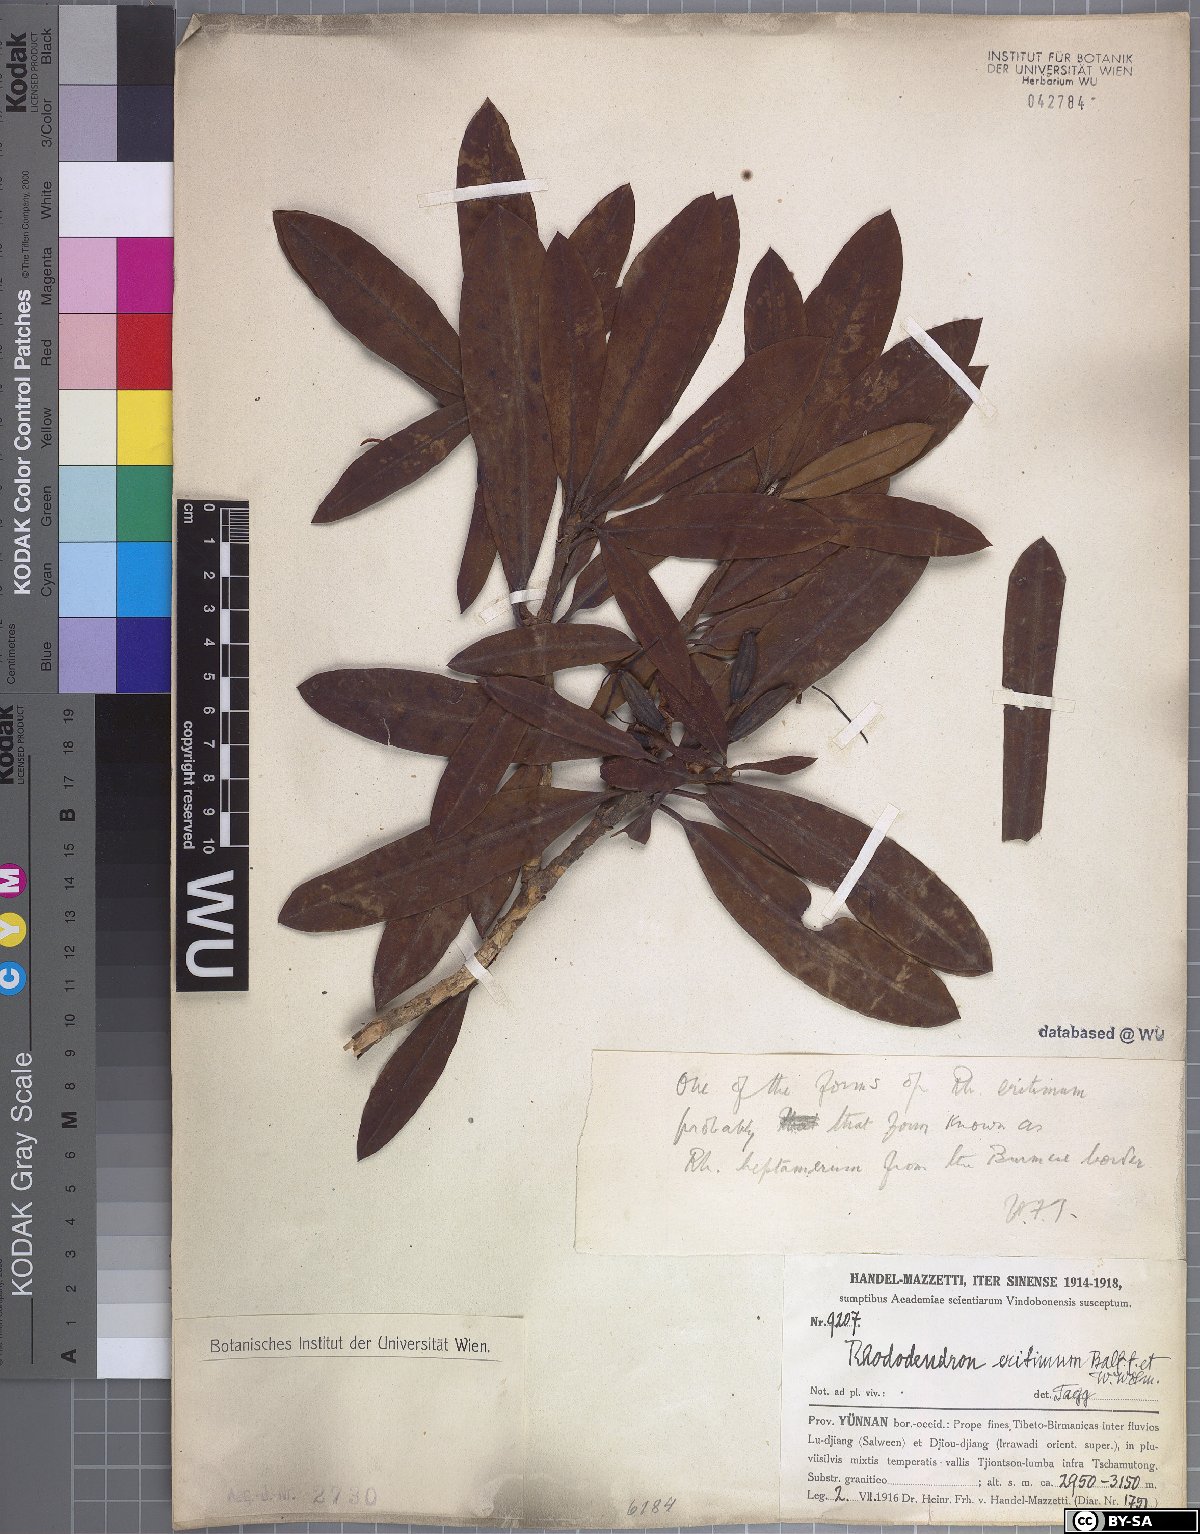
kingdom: Plantae
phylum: Tracheophyta
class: Magnoliopsida
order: Ericales
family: Ericaceae
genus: Rhododendron
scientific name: Rhododendron anthosphaerum
